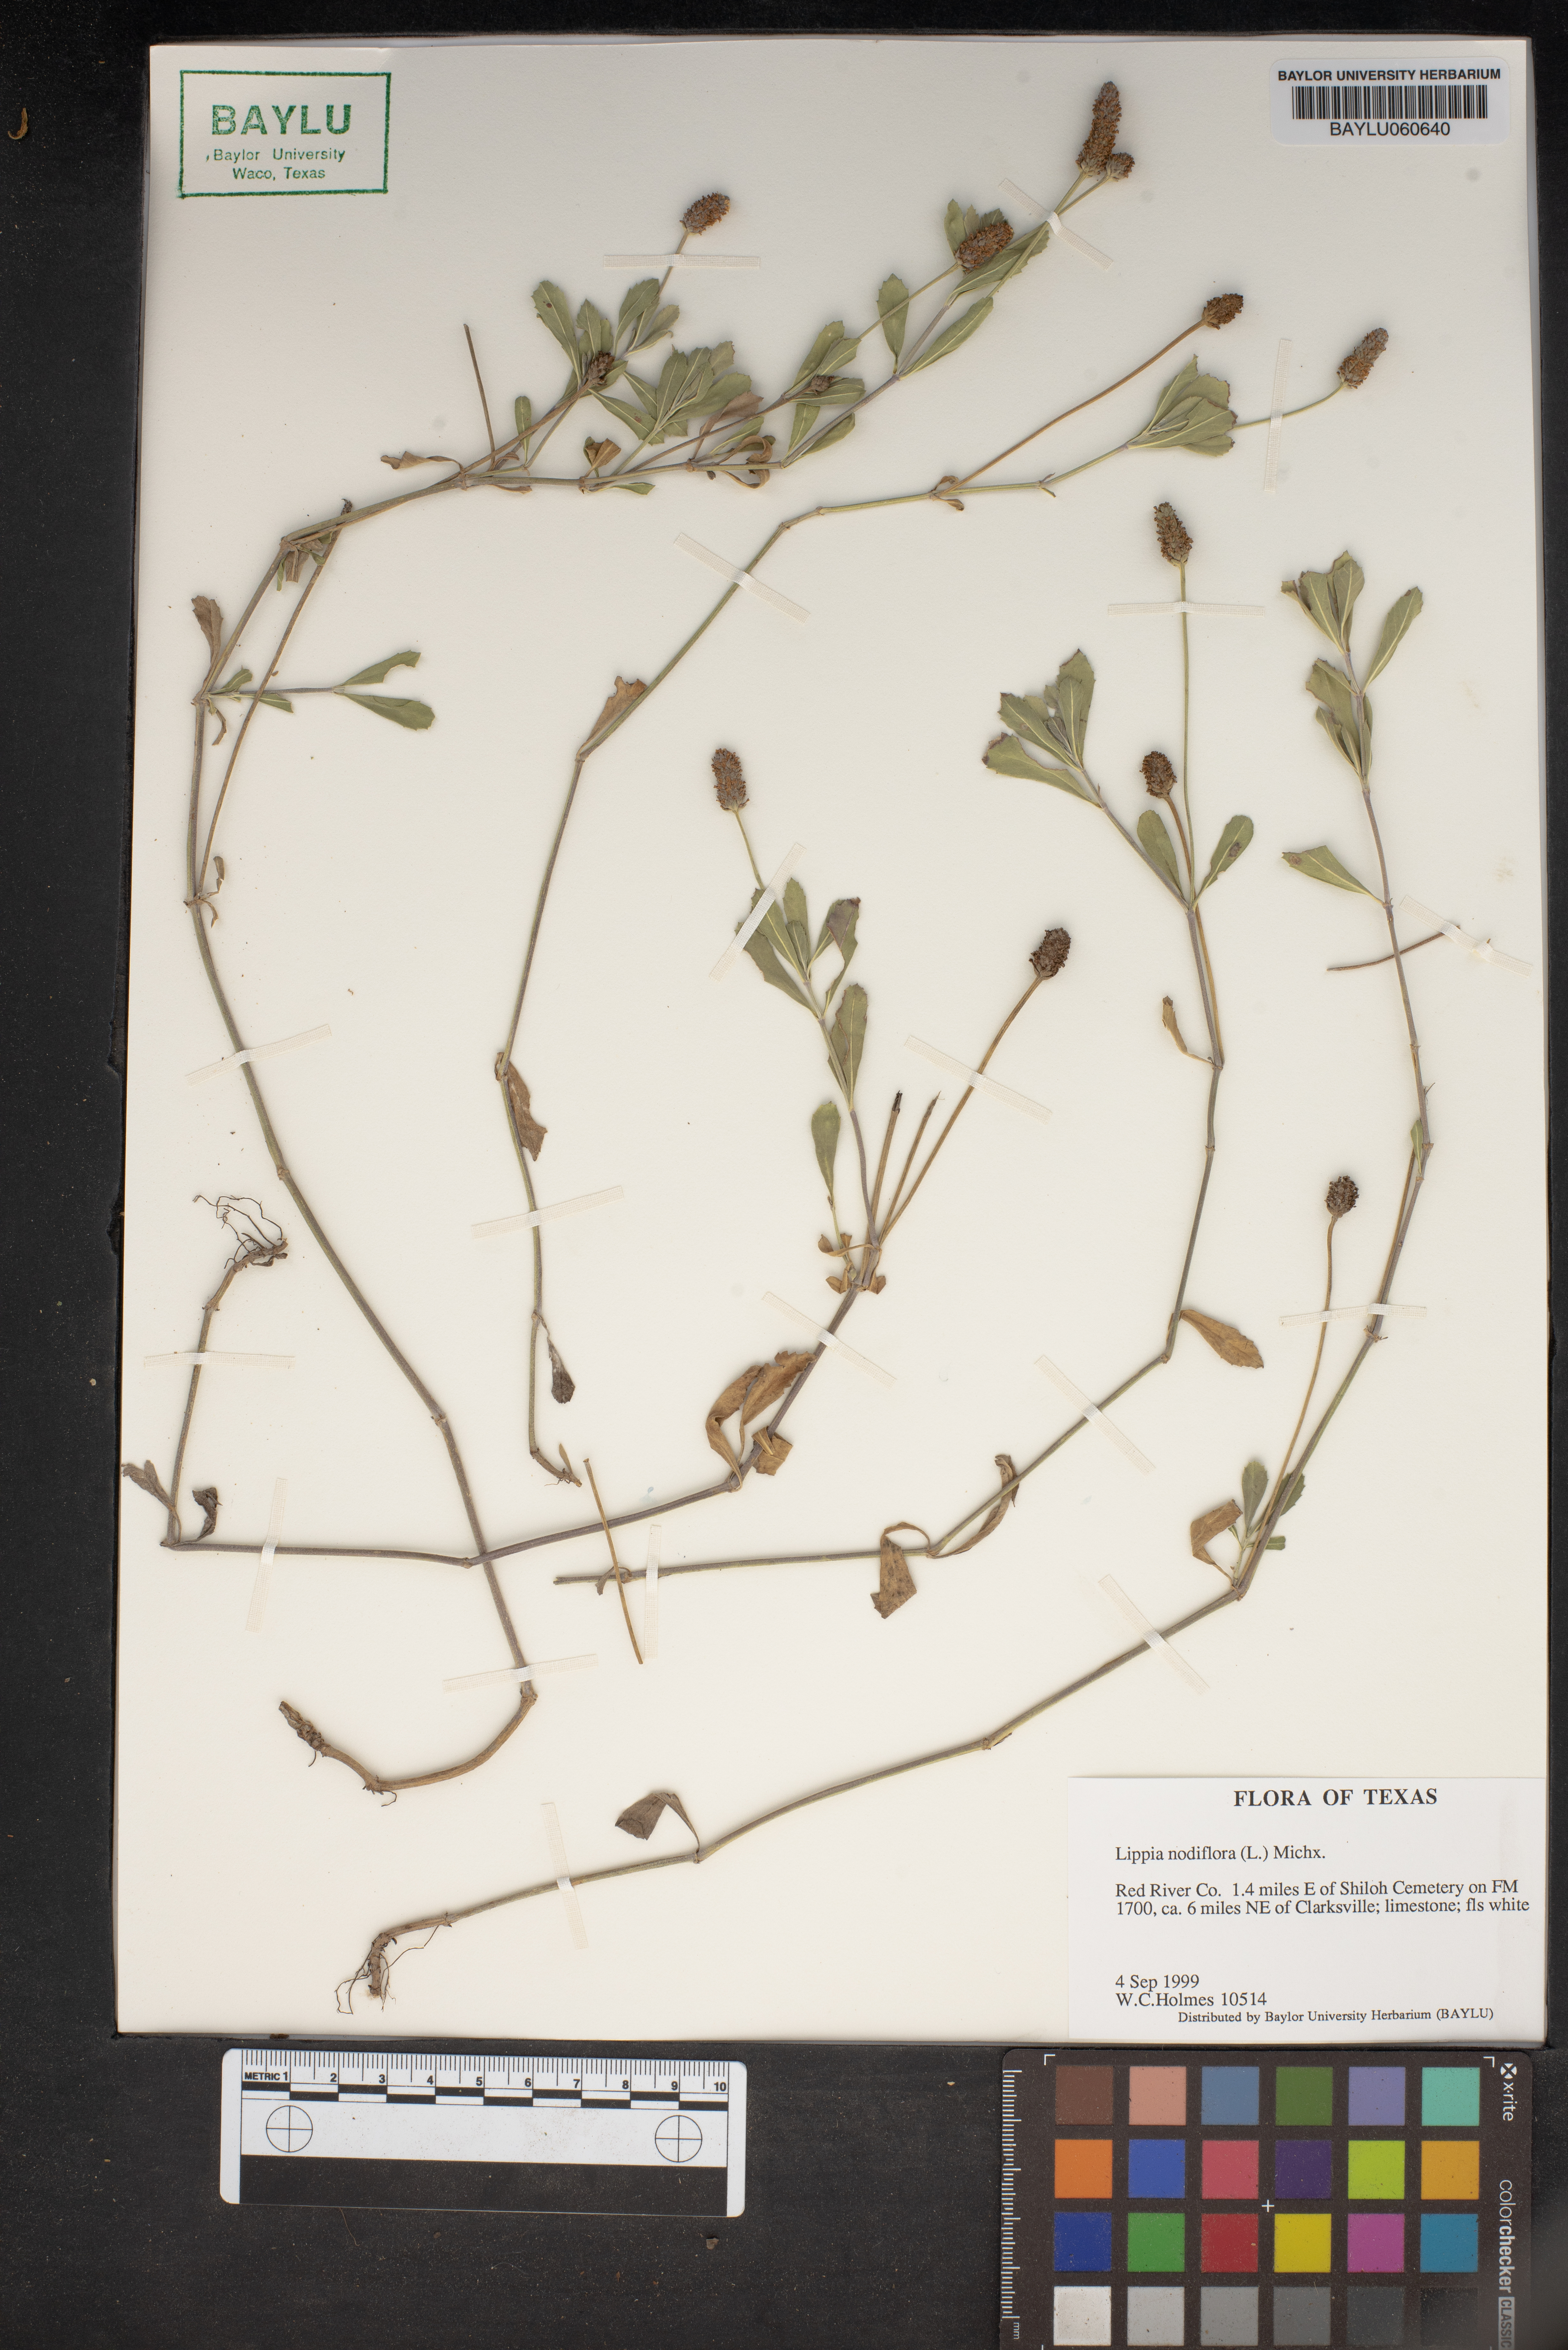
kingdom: Plantae
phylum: Tracheophyta
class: Magnoliopsida
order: Lamiales
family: Verbenaceae
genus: Phyla
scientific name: Phyla nodiflora
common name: Frogfruit
